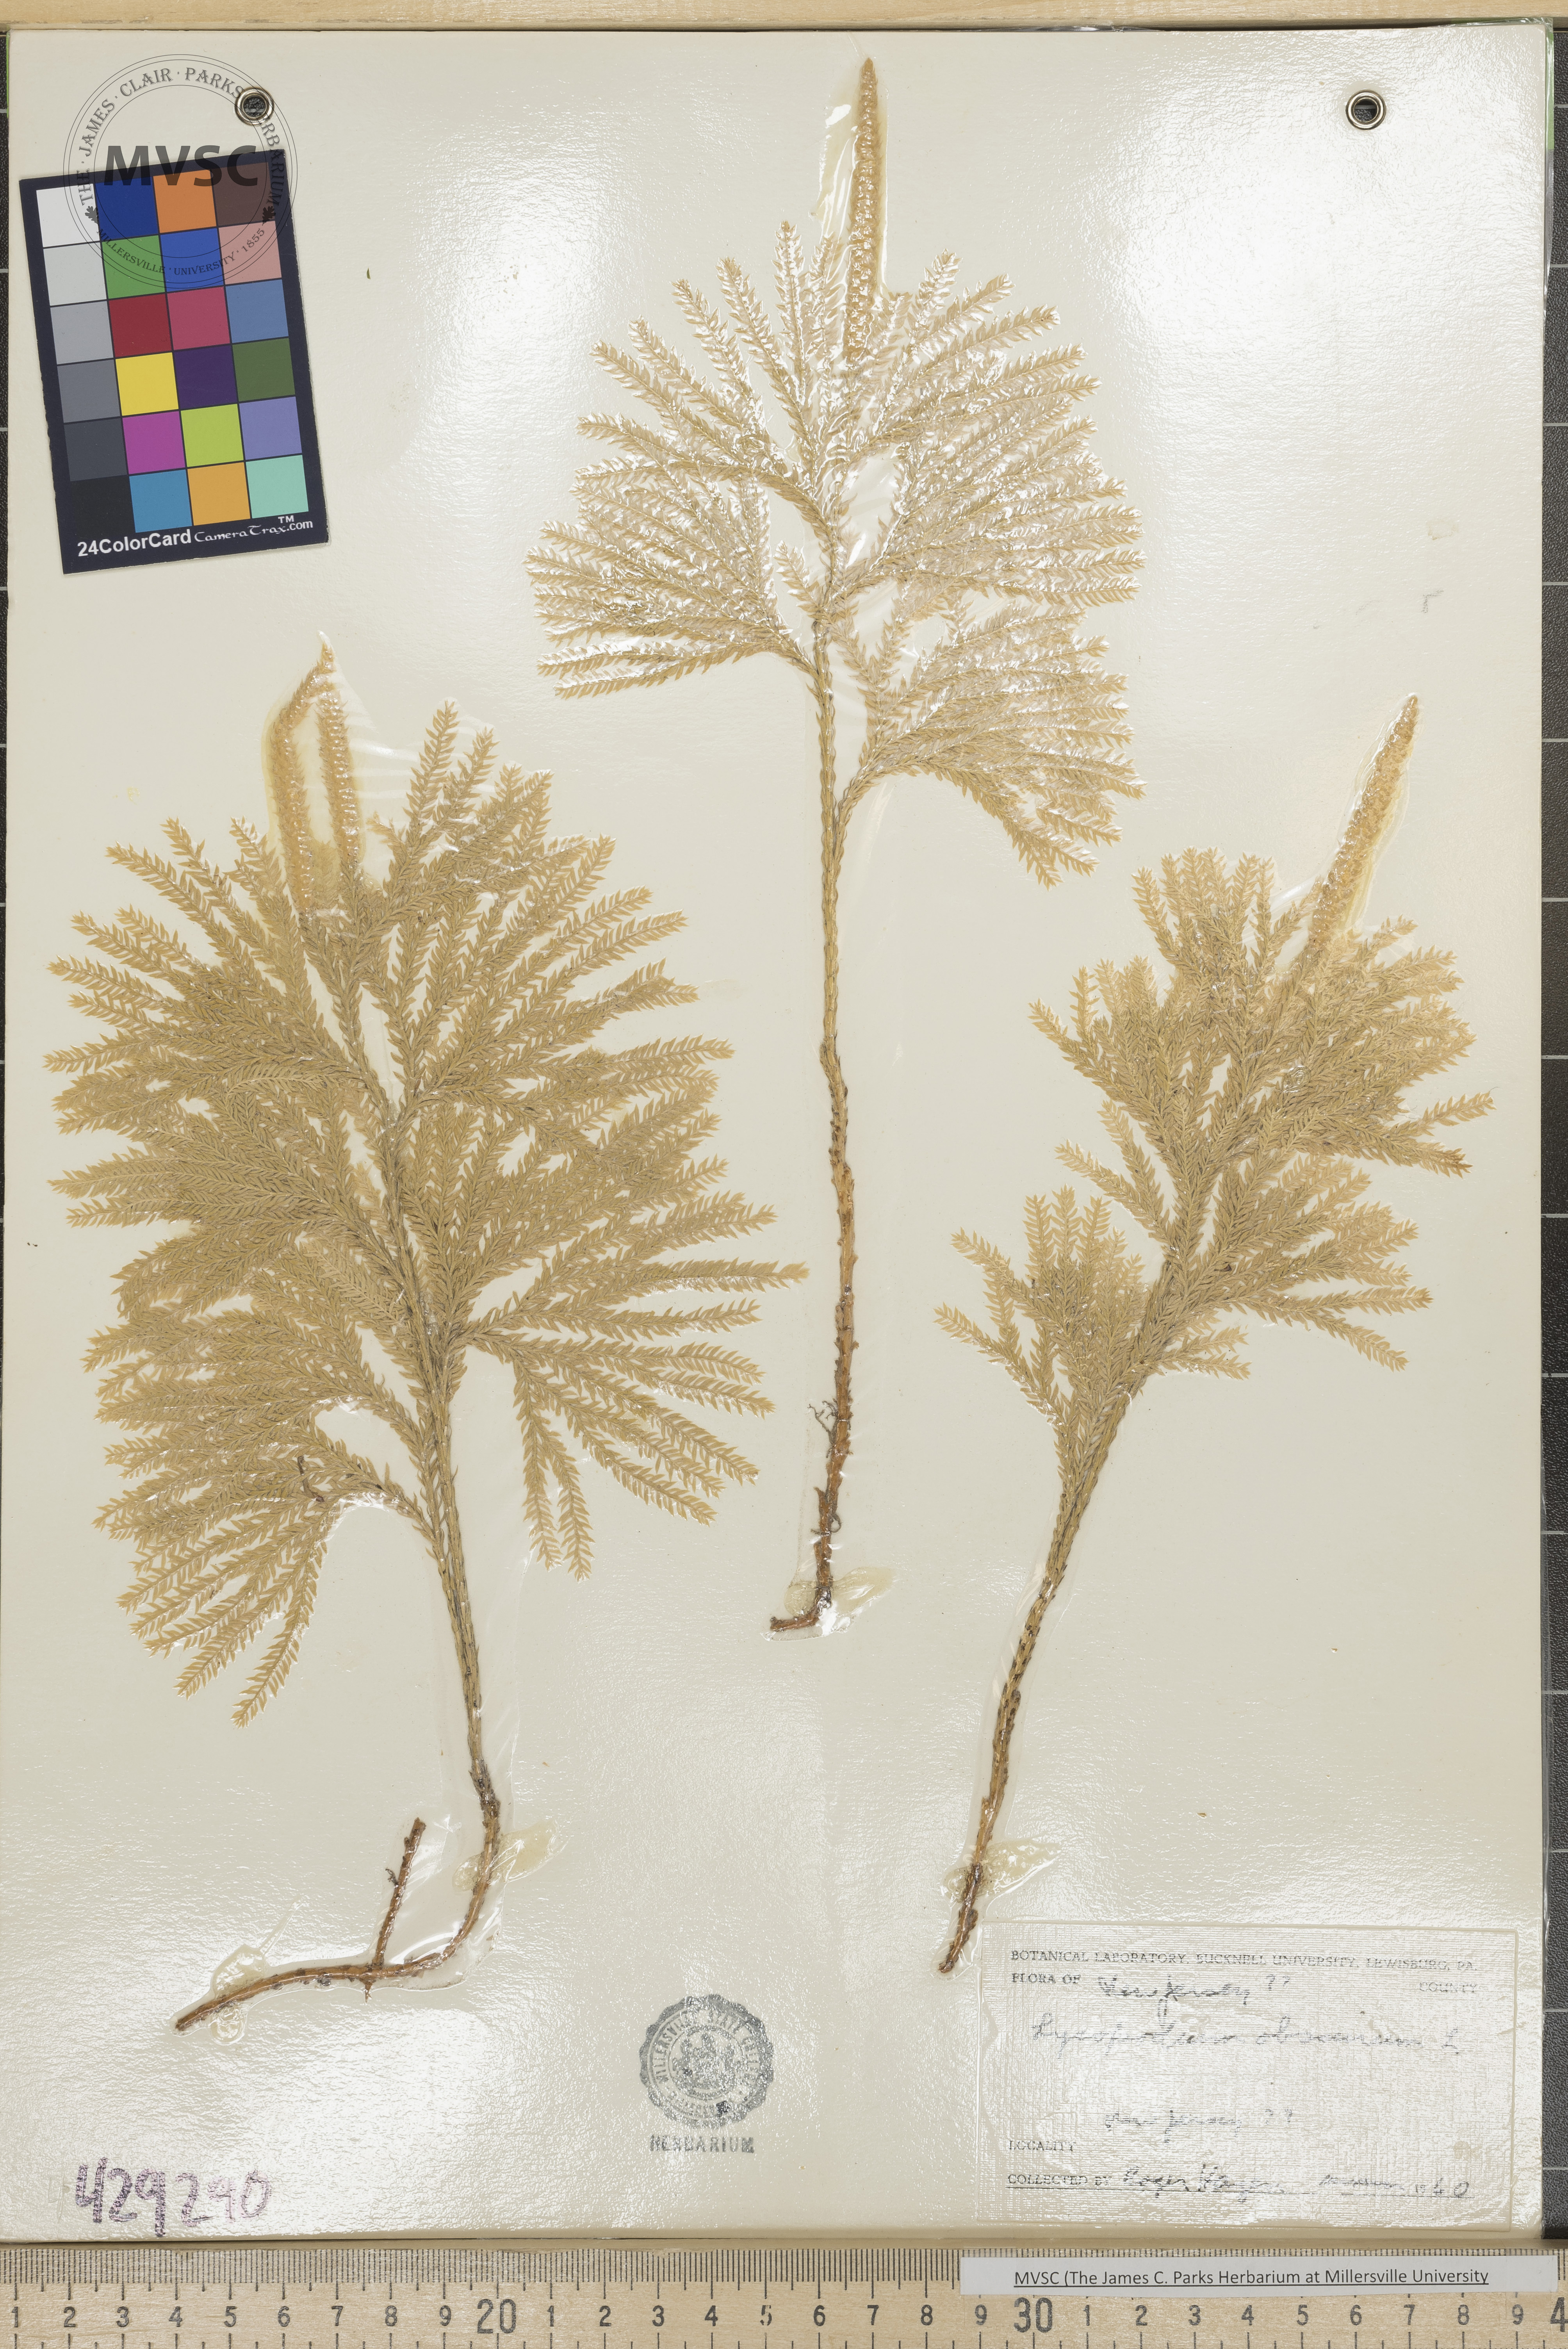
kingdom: Plantae
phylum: Tracheophyta
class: Lycopodiopsida
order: Lycopodiales
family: Lycopodiaceae
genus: Dendrolycopodium
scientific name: Dendrolycopodium obscurum
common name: Common ground-pine
